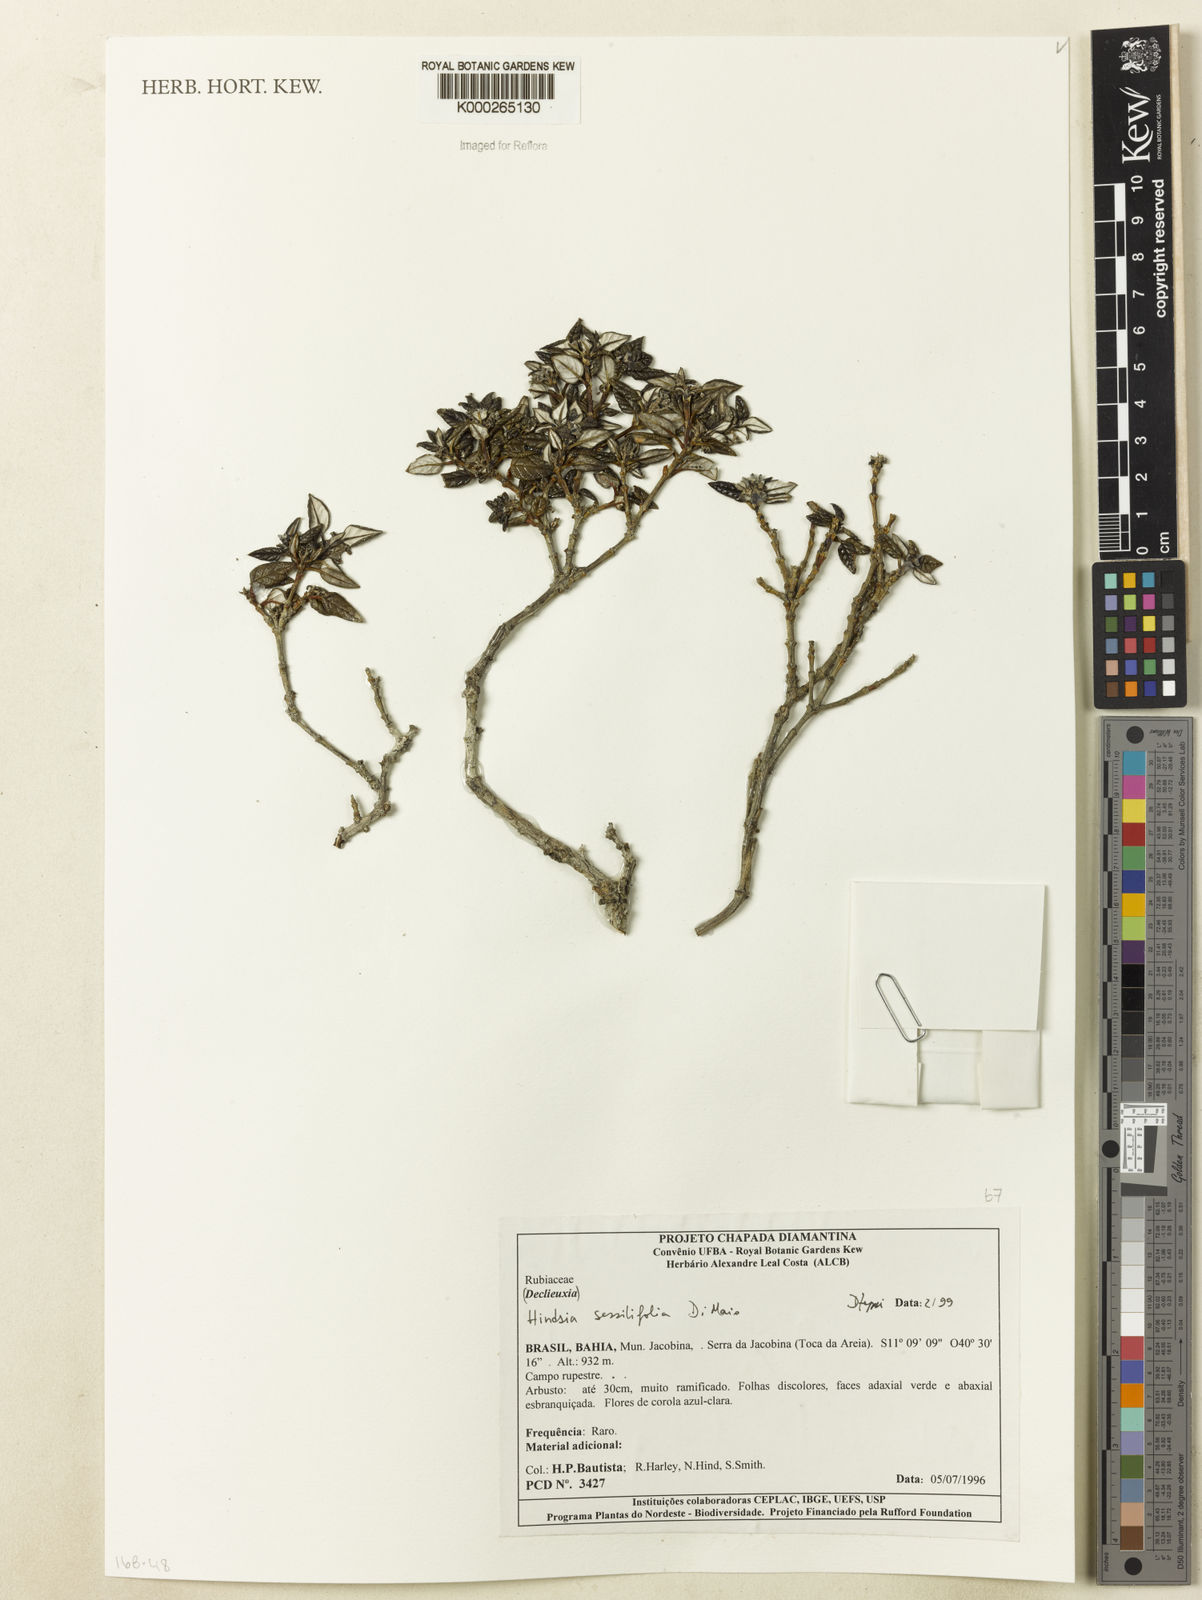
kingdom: Plantae
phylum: Tracheophyta
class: Magnoliopsida
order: Gentianales
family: Rubiaceae
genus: Hindsia
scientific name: Hindsia sessilifolia
